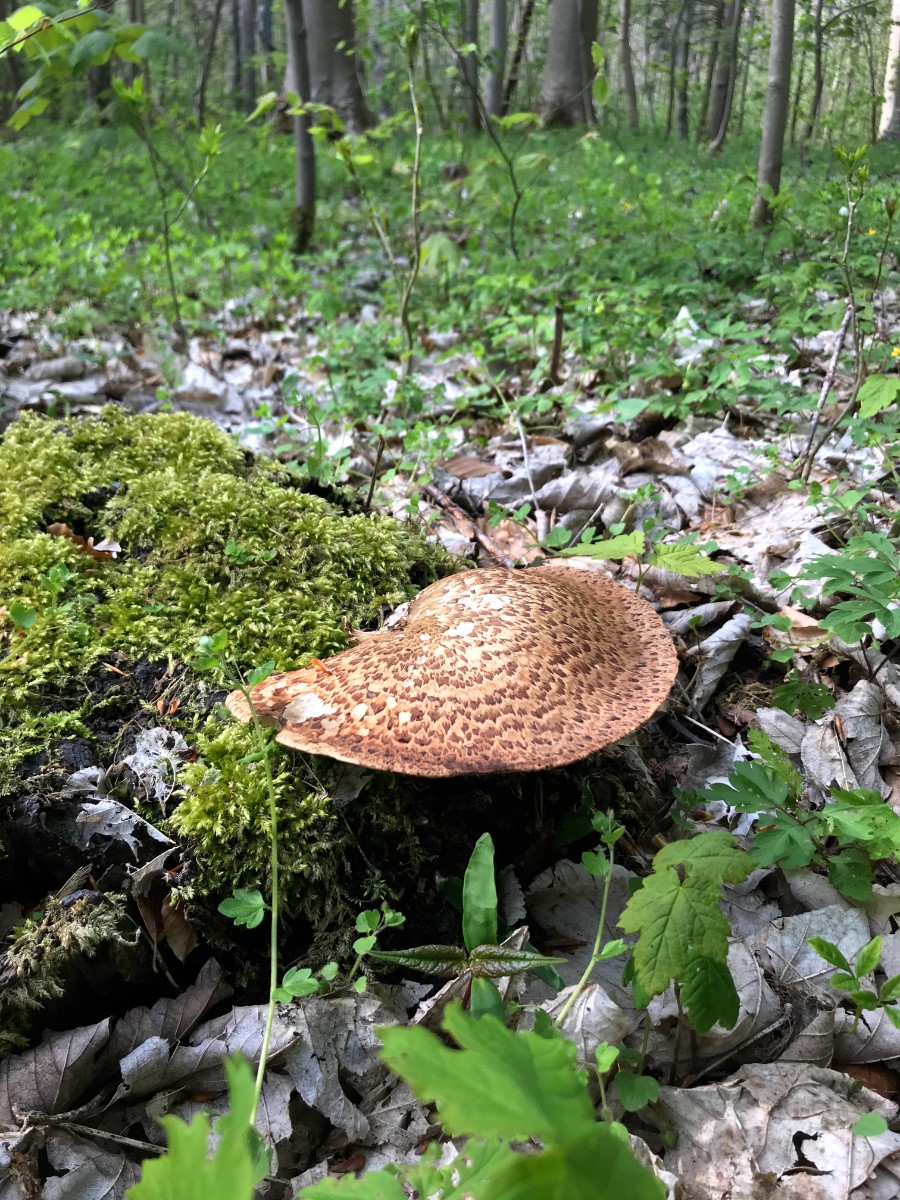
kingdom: Fungi
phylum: Basidiomycota
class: Agaricomycetes
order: Polyporales
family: Polyporaceae
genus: Cerioporus
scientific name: Cerioporus squamosus
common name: skællet stilkporesvamp
